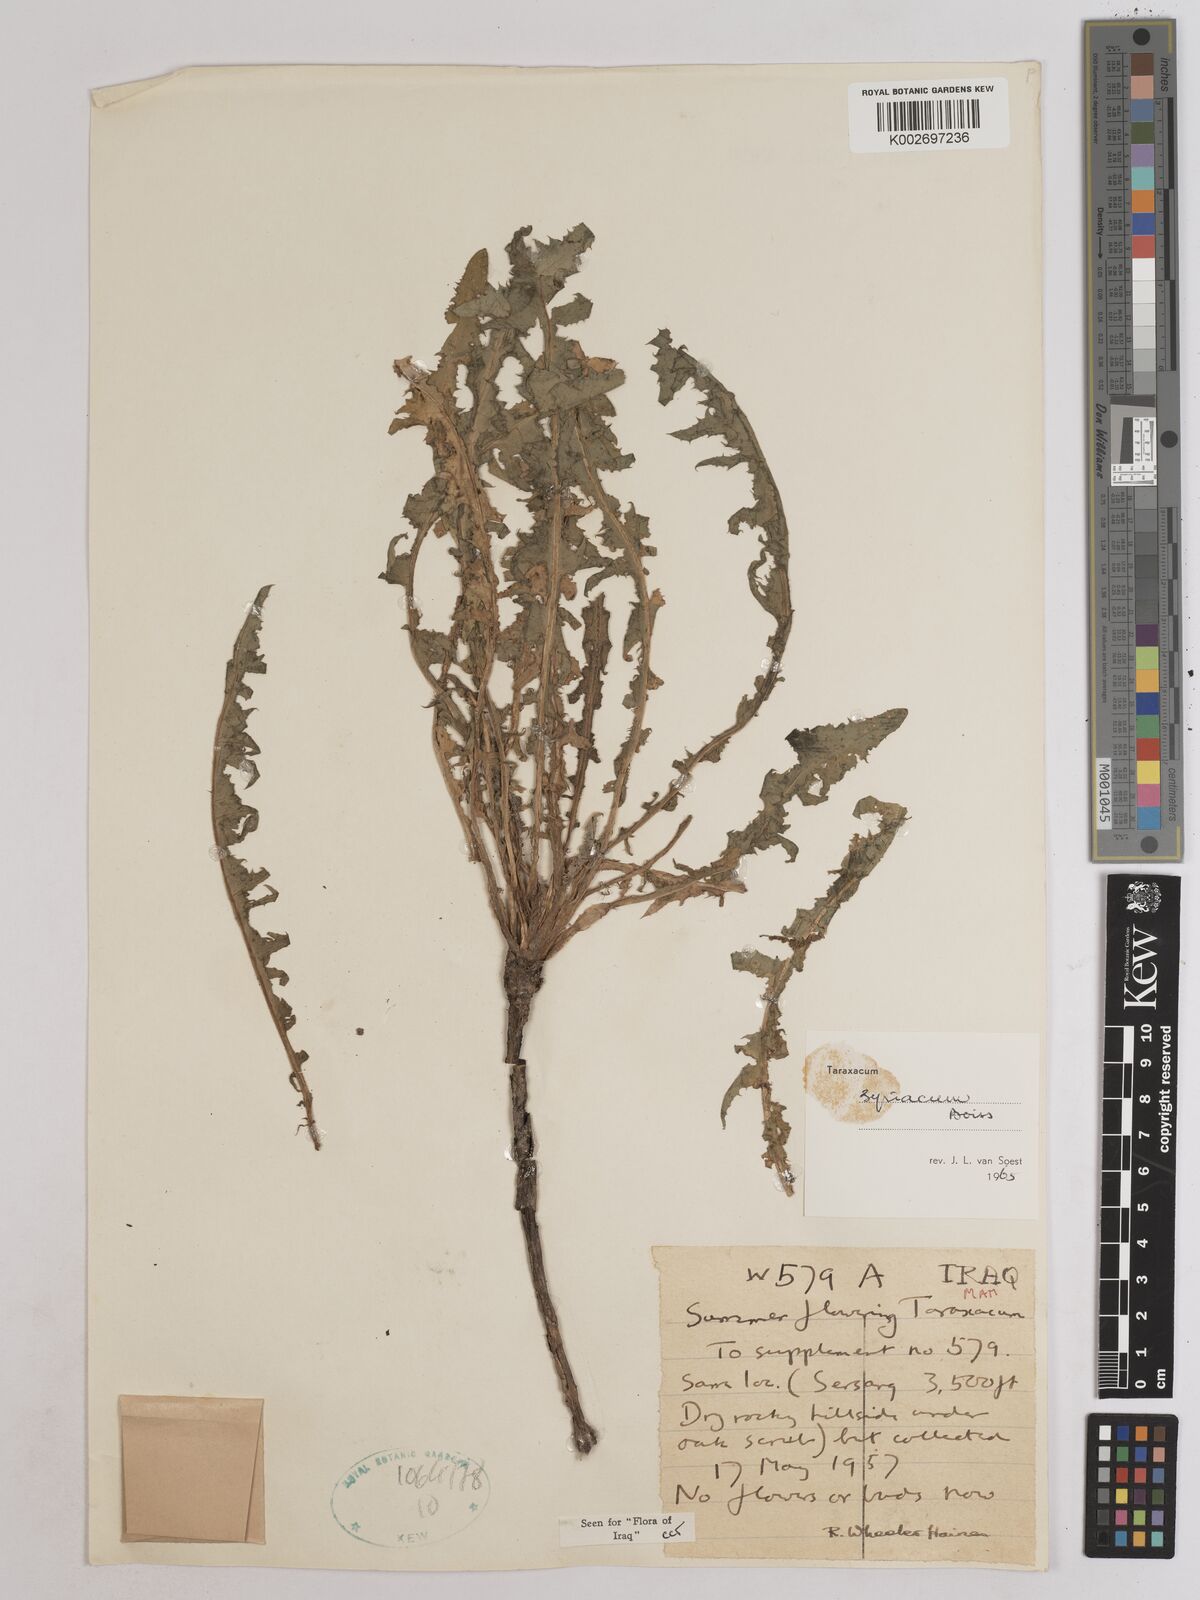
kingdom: Plantae
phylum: Tracheophyta
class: Magnoliopsida
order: Asterales
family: Asteraceae
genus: Taraxacum
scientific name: Taraxacum syriacum
